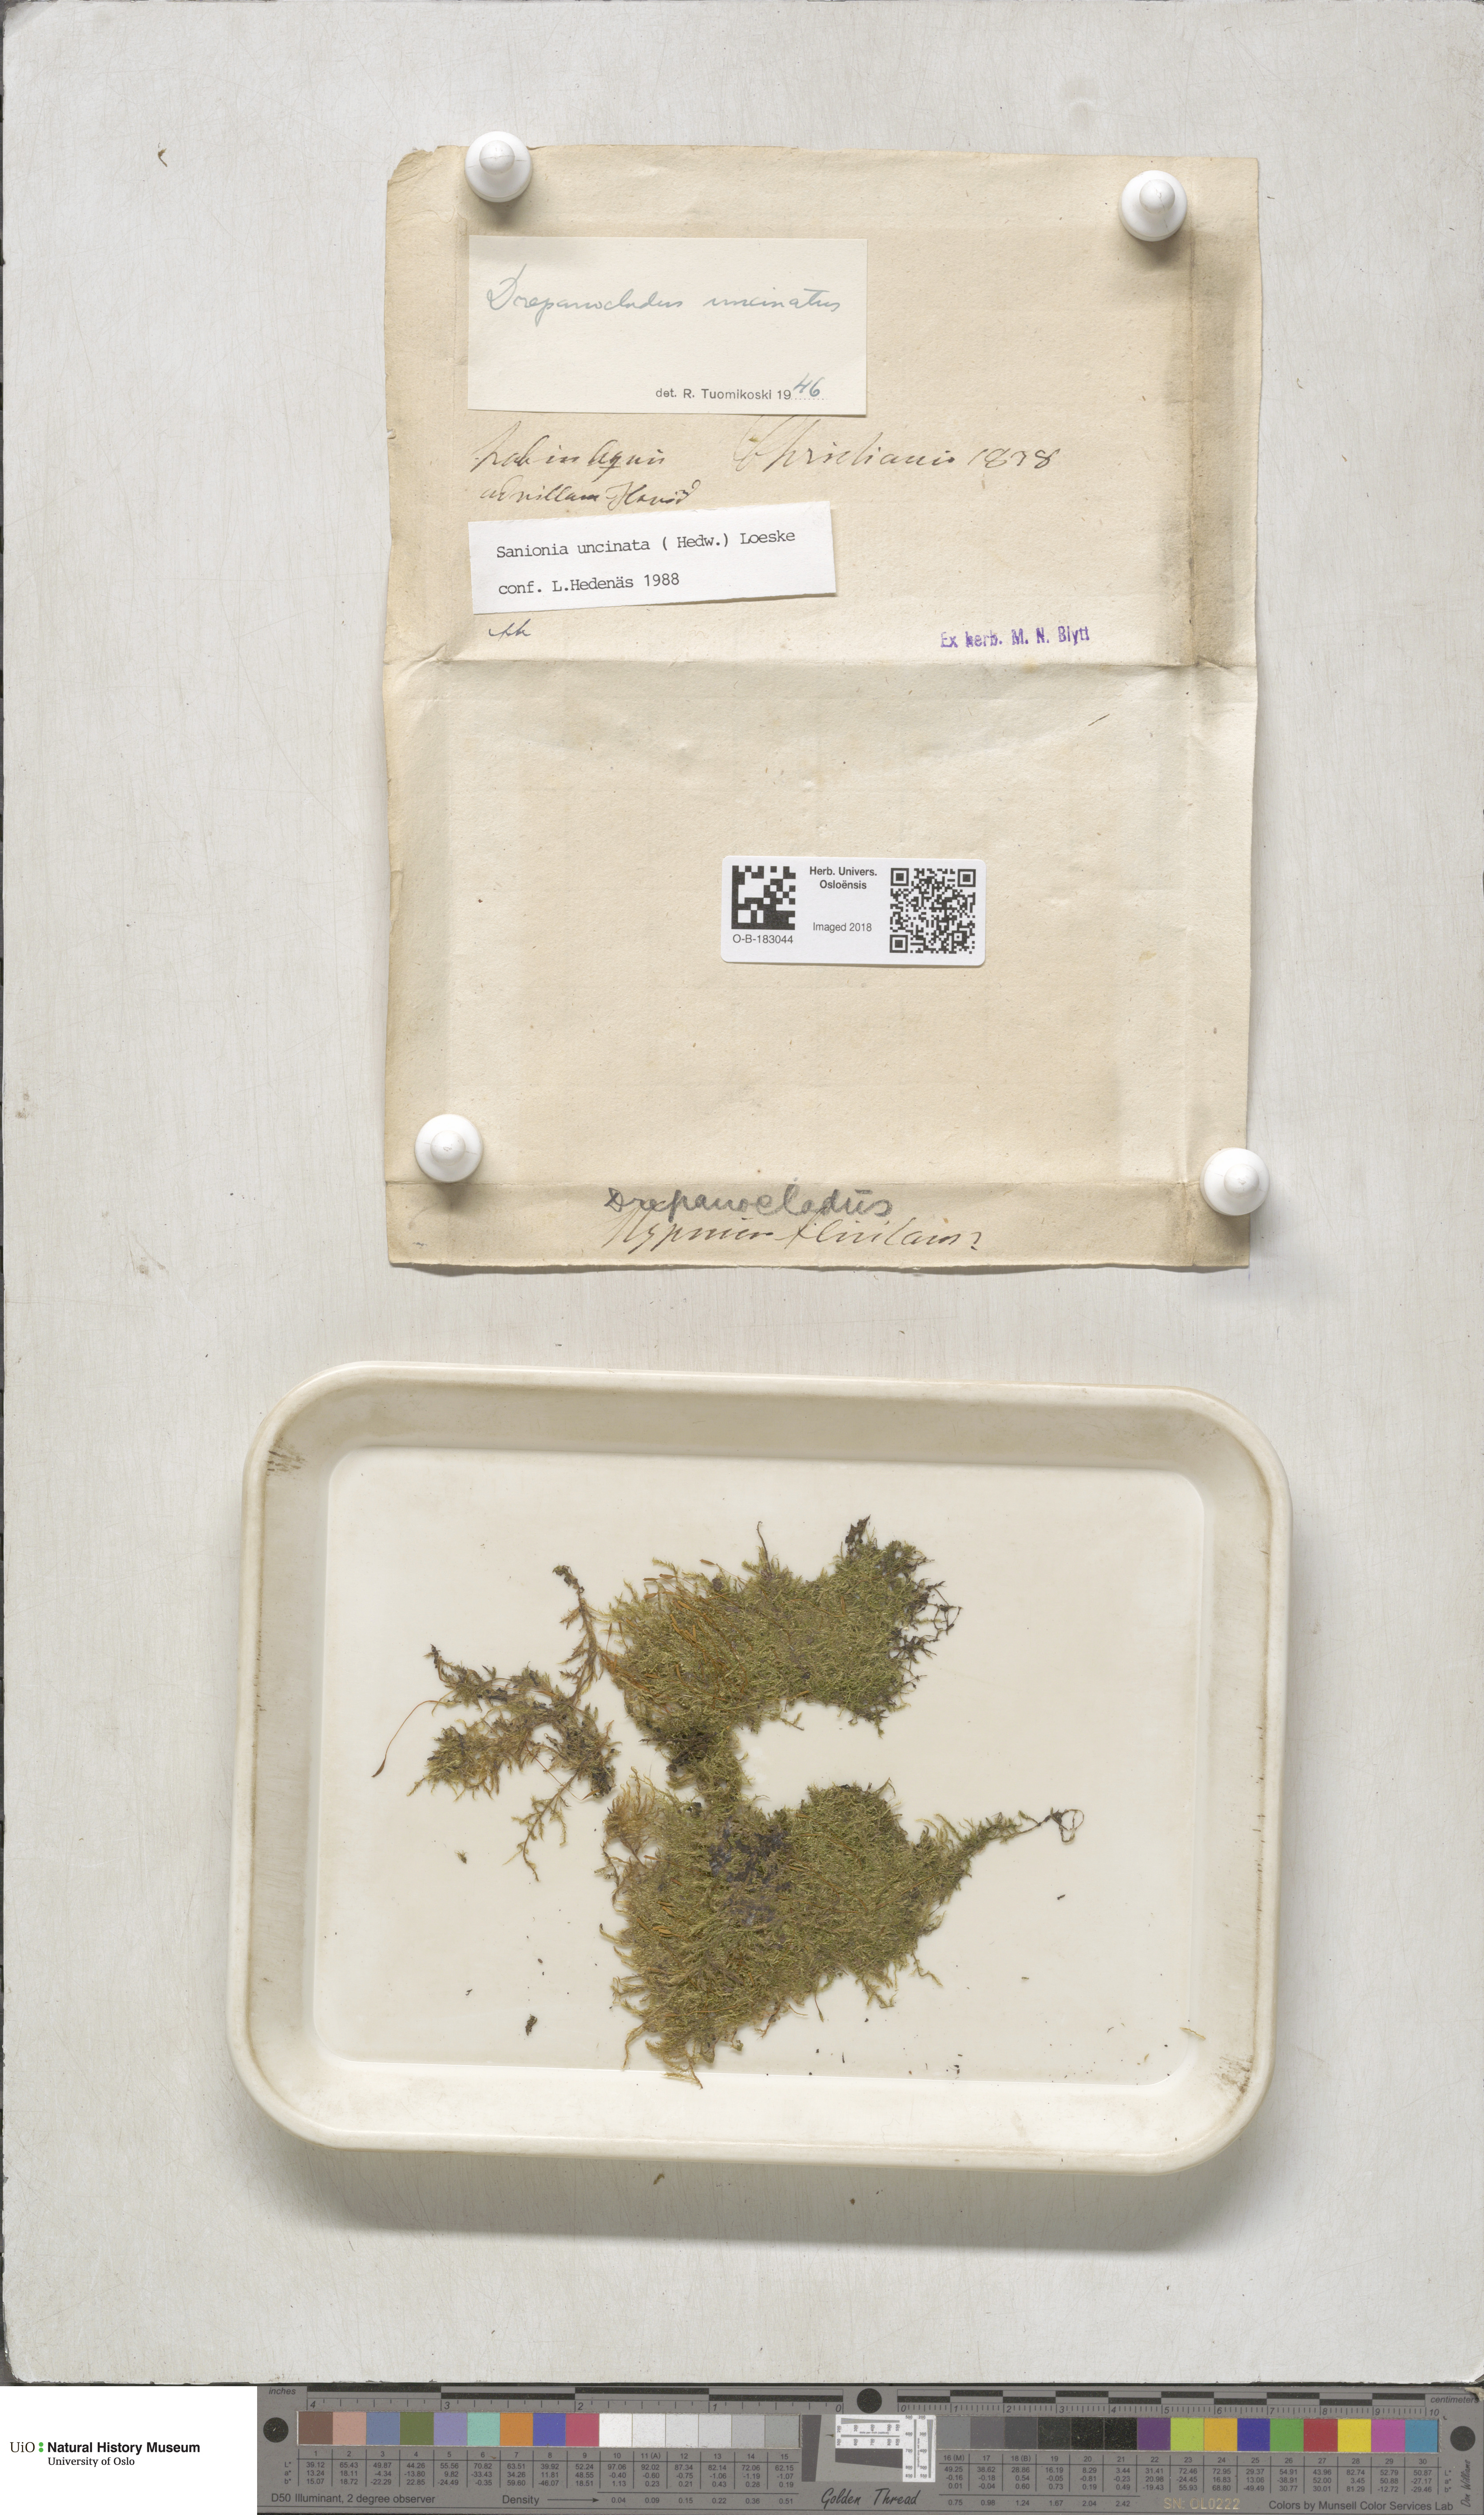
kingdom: Plantae
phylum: Bryophyta
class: Bryopsida
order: Hypnales
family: Scorpidiaceae
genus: Sanionia
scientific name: Sanionia uncinata
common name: Sickle moss
